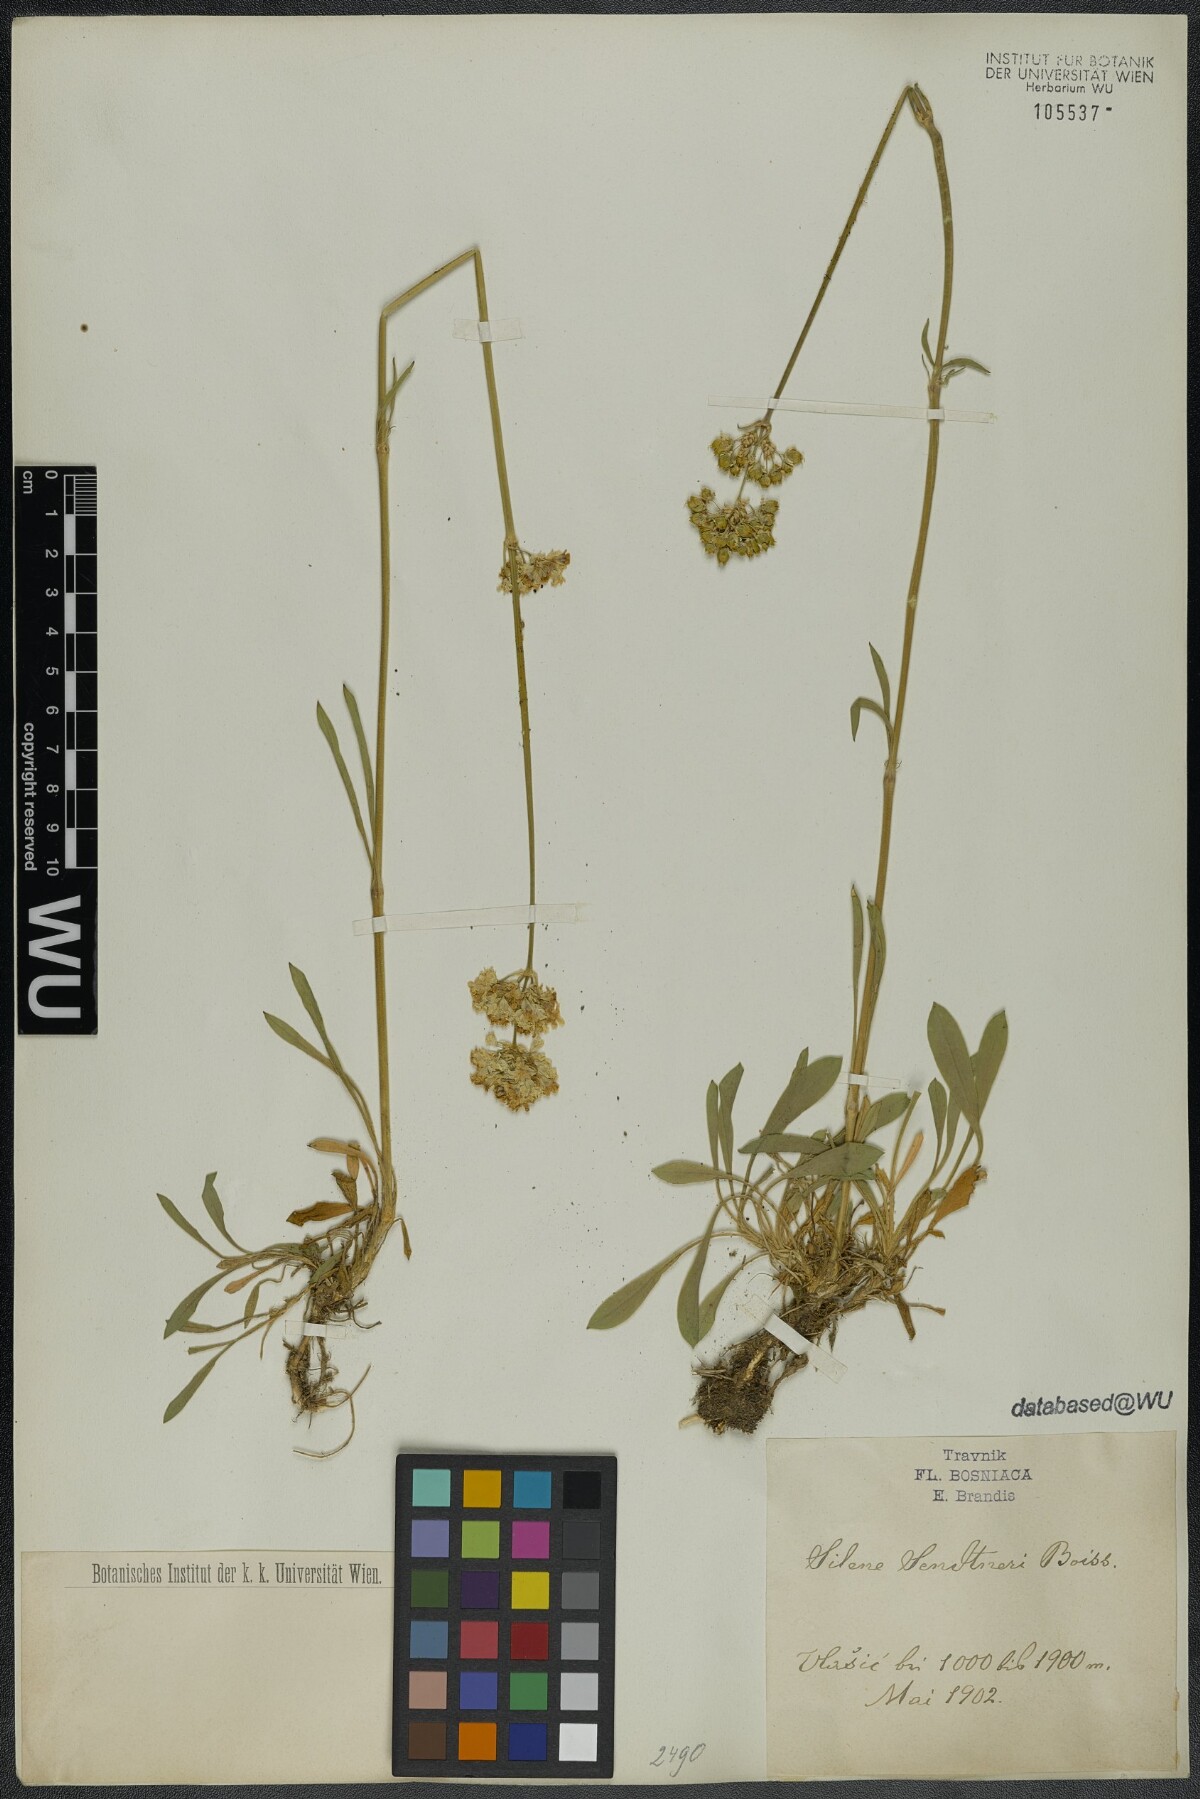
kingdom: Plantae
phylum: Tracheophyta
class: Magnoliopsida
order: Caryophyllales
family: Caryophyllaceae
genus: Silene
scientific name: Silene sendtneri
